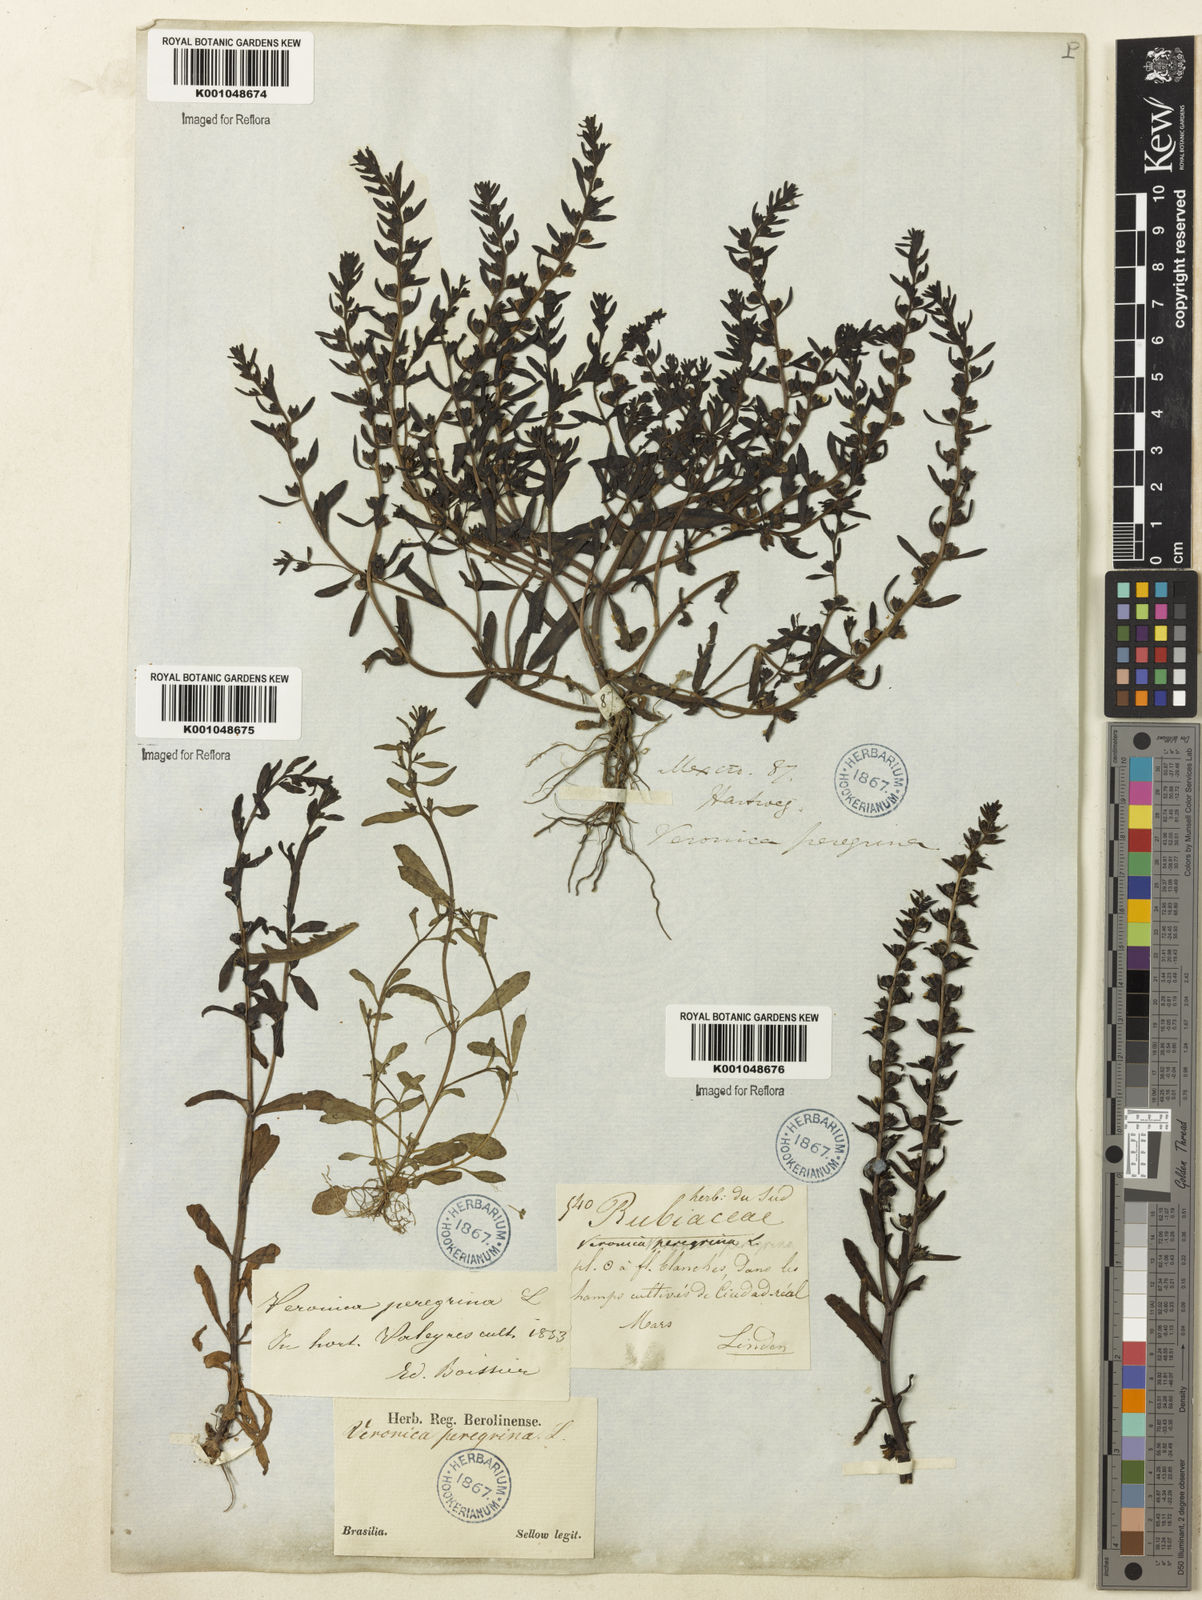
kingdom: Plantae
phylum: Tracheophyta
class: Magnoliopsida
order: Lamiales
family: Plantaginaceae
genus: Veronica
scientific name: Veronica peregrina
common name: Neckweed
